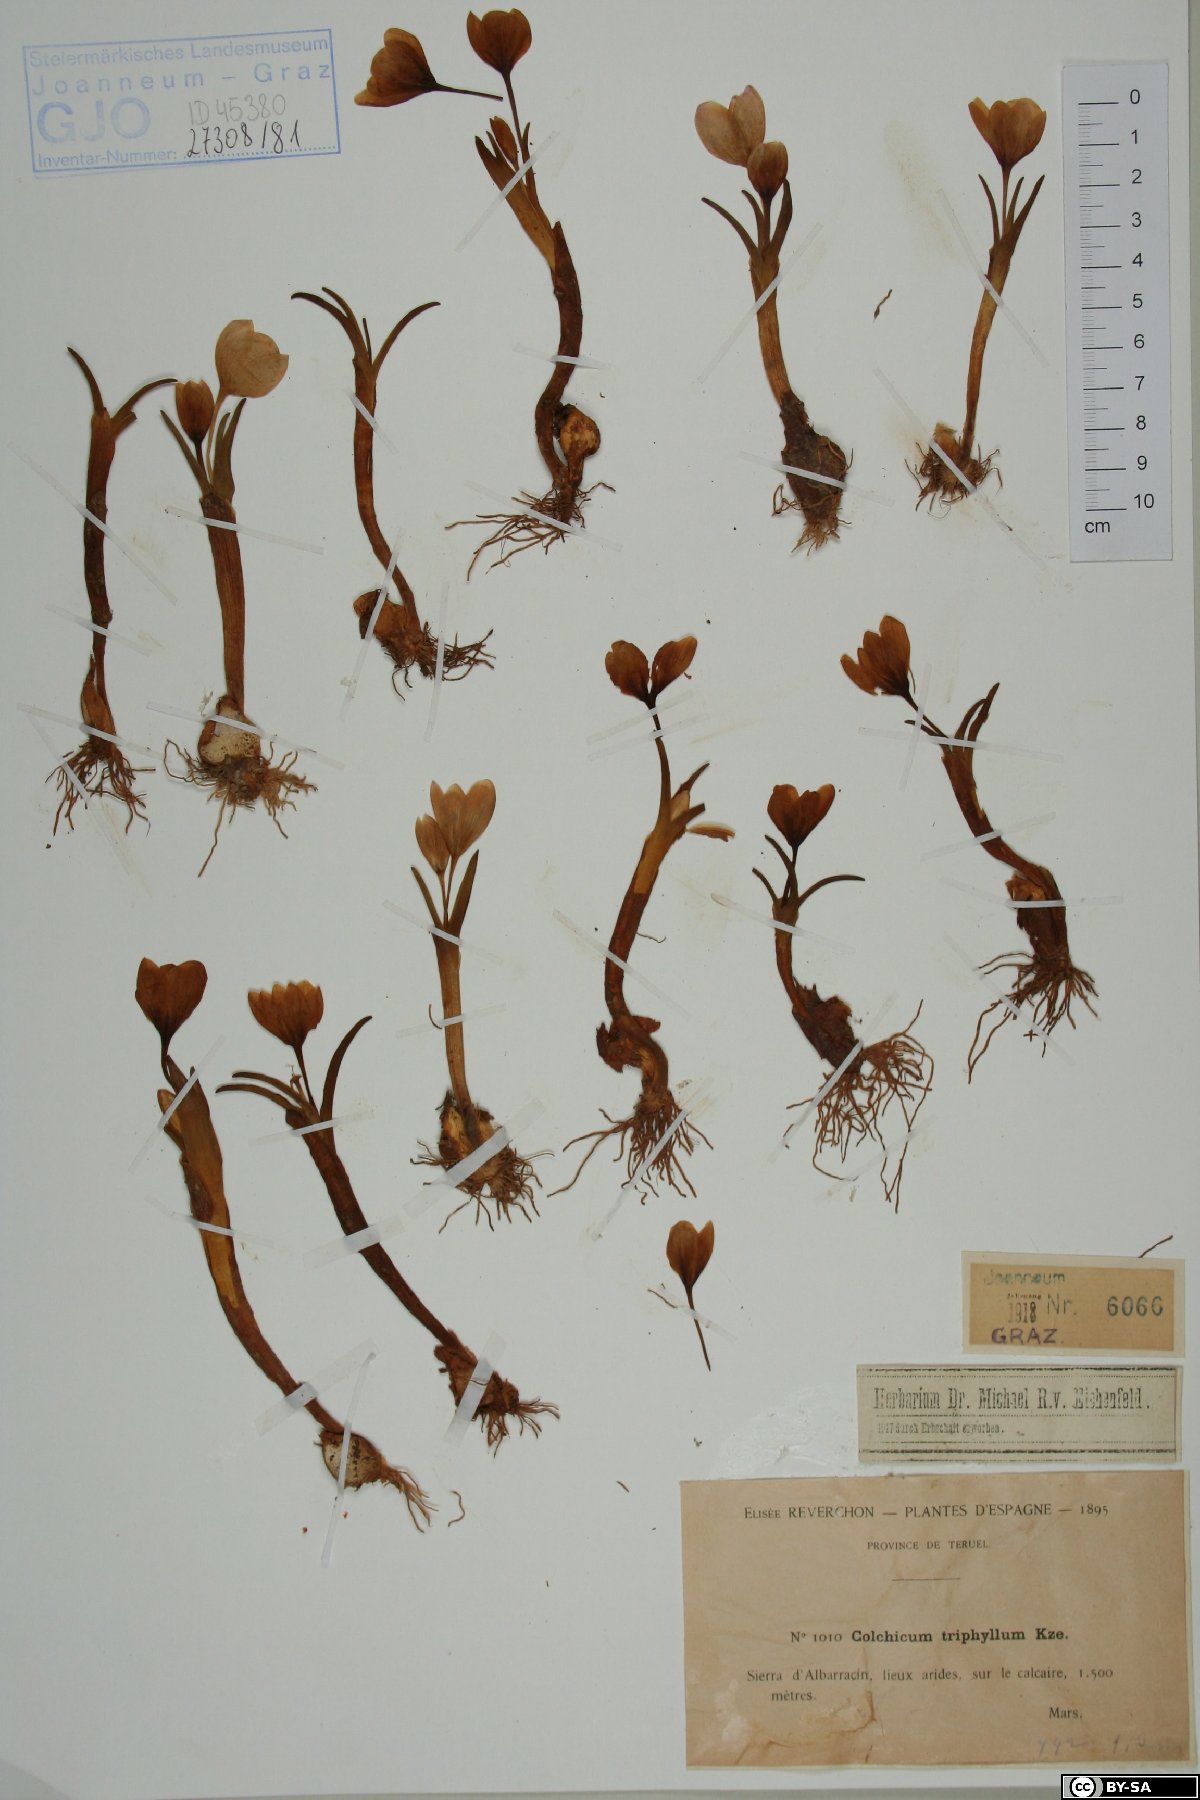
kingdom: Plantae
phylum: Tracheophyta
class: Liliopsida
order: Liliales
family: Colchicaceae
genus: Colchicum
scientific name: Colchicum triphyllum
